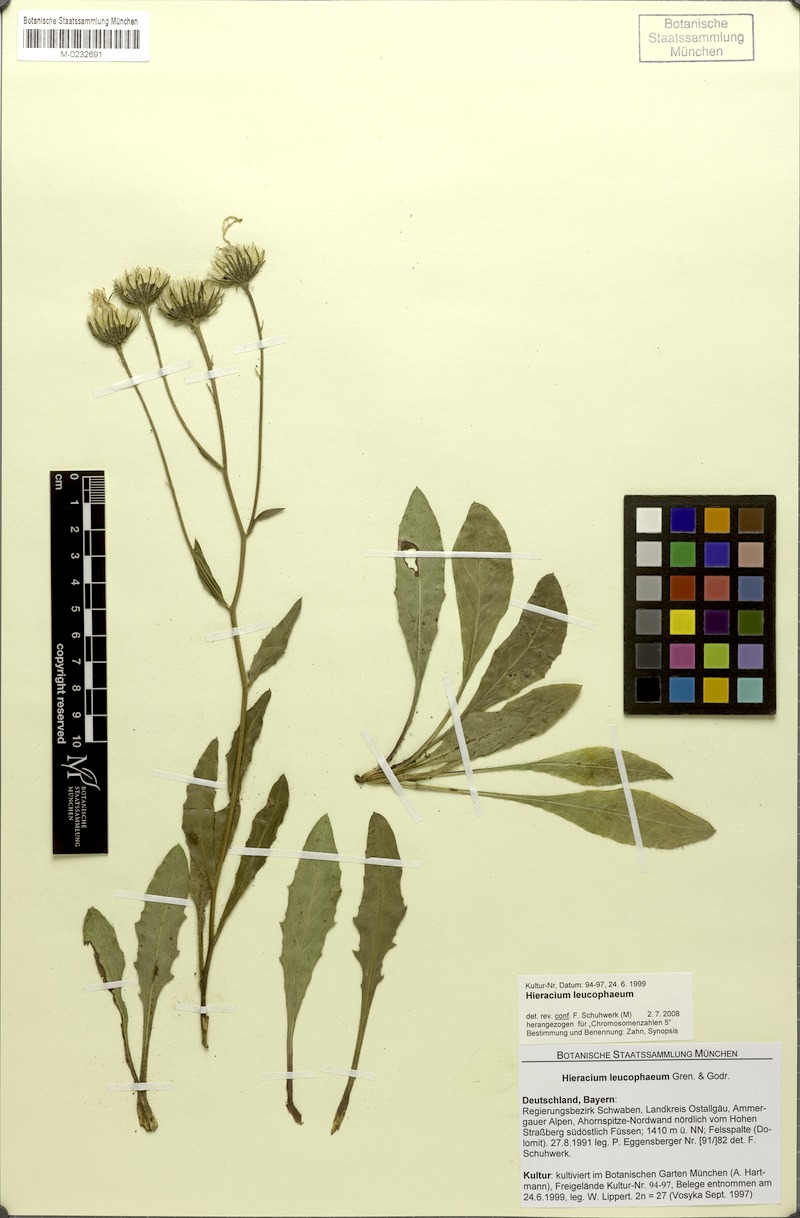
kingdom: Plantae
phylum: Tracheophyta
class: Magnoliopsida
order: Asterales
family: Asteraceae
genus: Hieracium
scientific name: Hieracium leucophaeum
